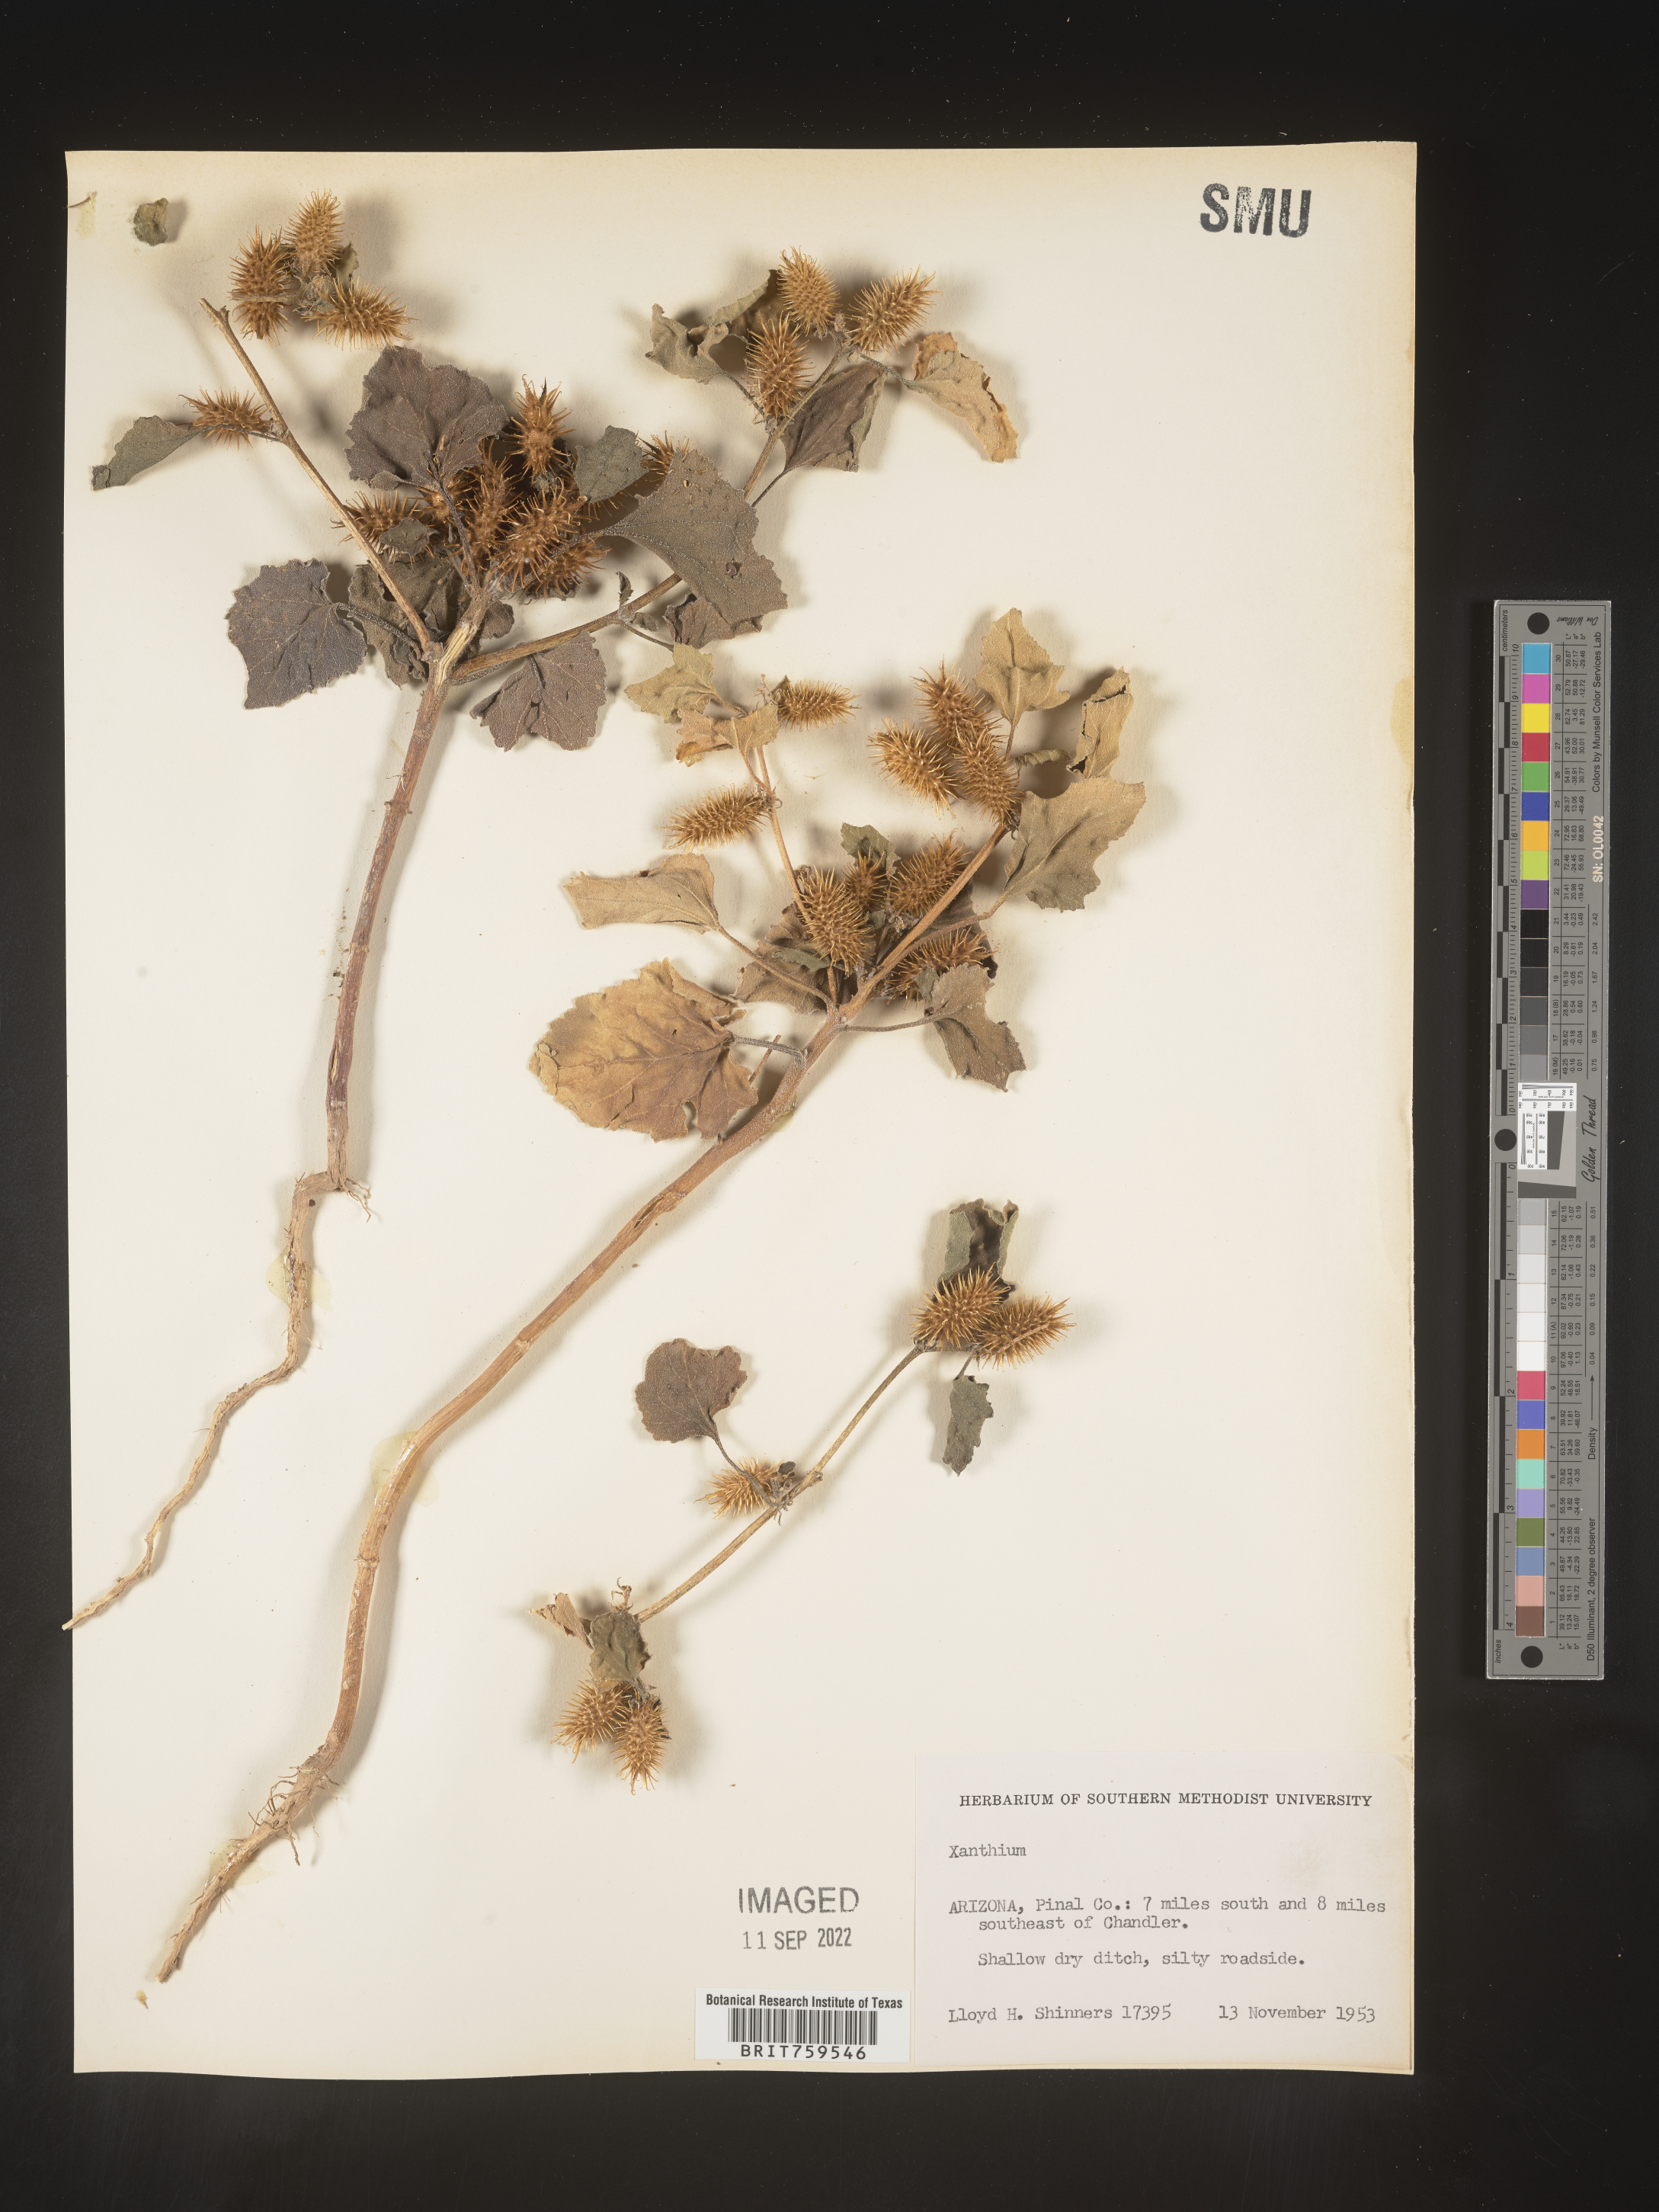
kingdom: Plantae
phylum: Tracheophyta
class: Magnoliopsida
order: Asterales
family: Asteraceae
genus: Xanthium
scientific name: Xanthium
